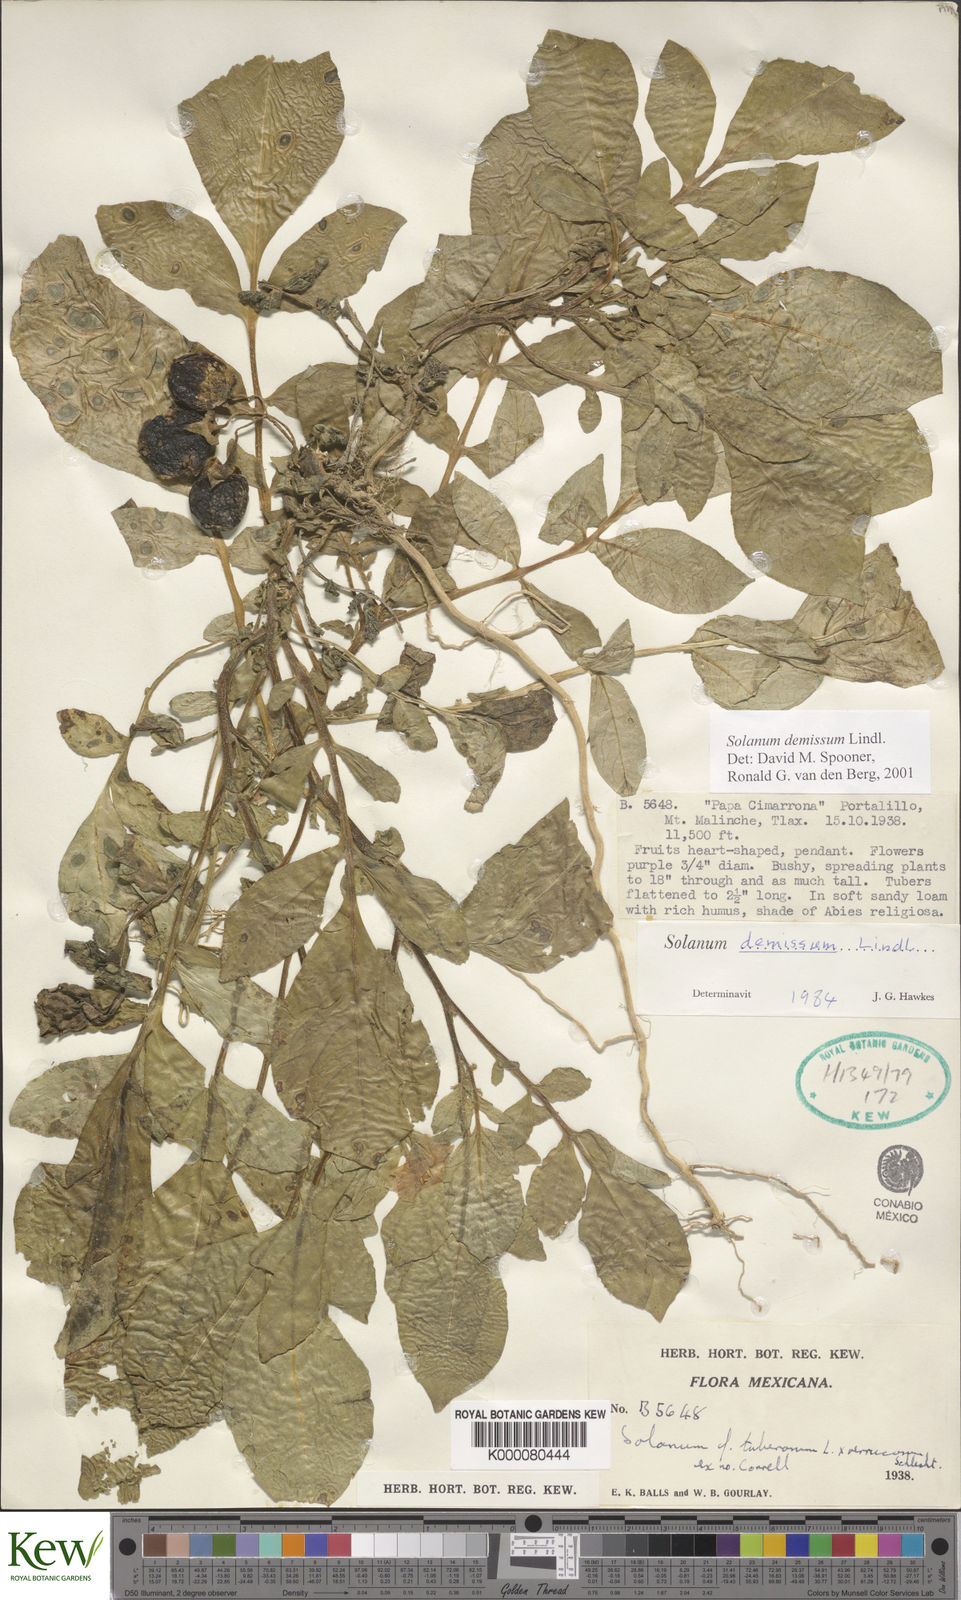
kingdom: Plantae
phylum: Tracheophyta
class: Magnoliopsida
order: Solanales
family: Solanaceae
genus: Solanum
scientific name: Solanum demissum
